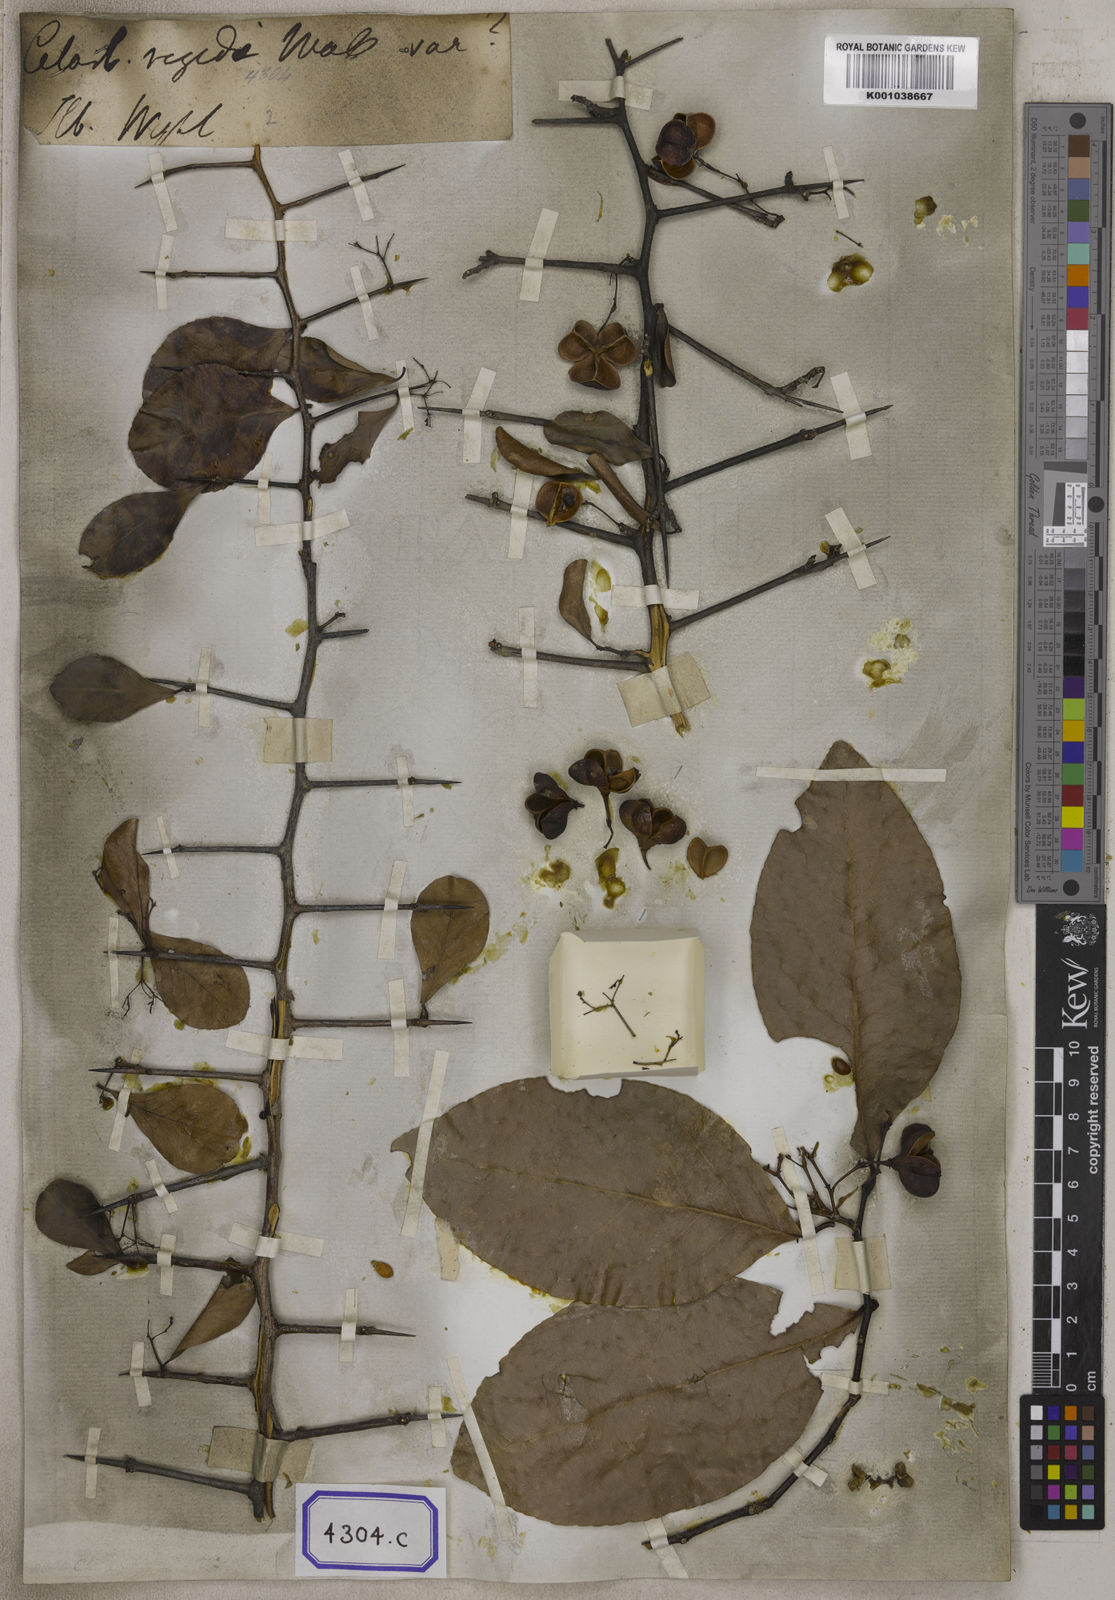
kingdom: Plantae
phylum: Tracheophyta
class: Magnoliopsida
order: Celastrales
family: Celastraceae
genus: Gymnosporia
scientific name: Gymnosporia wallichiana
